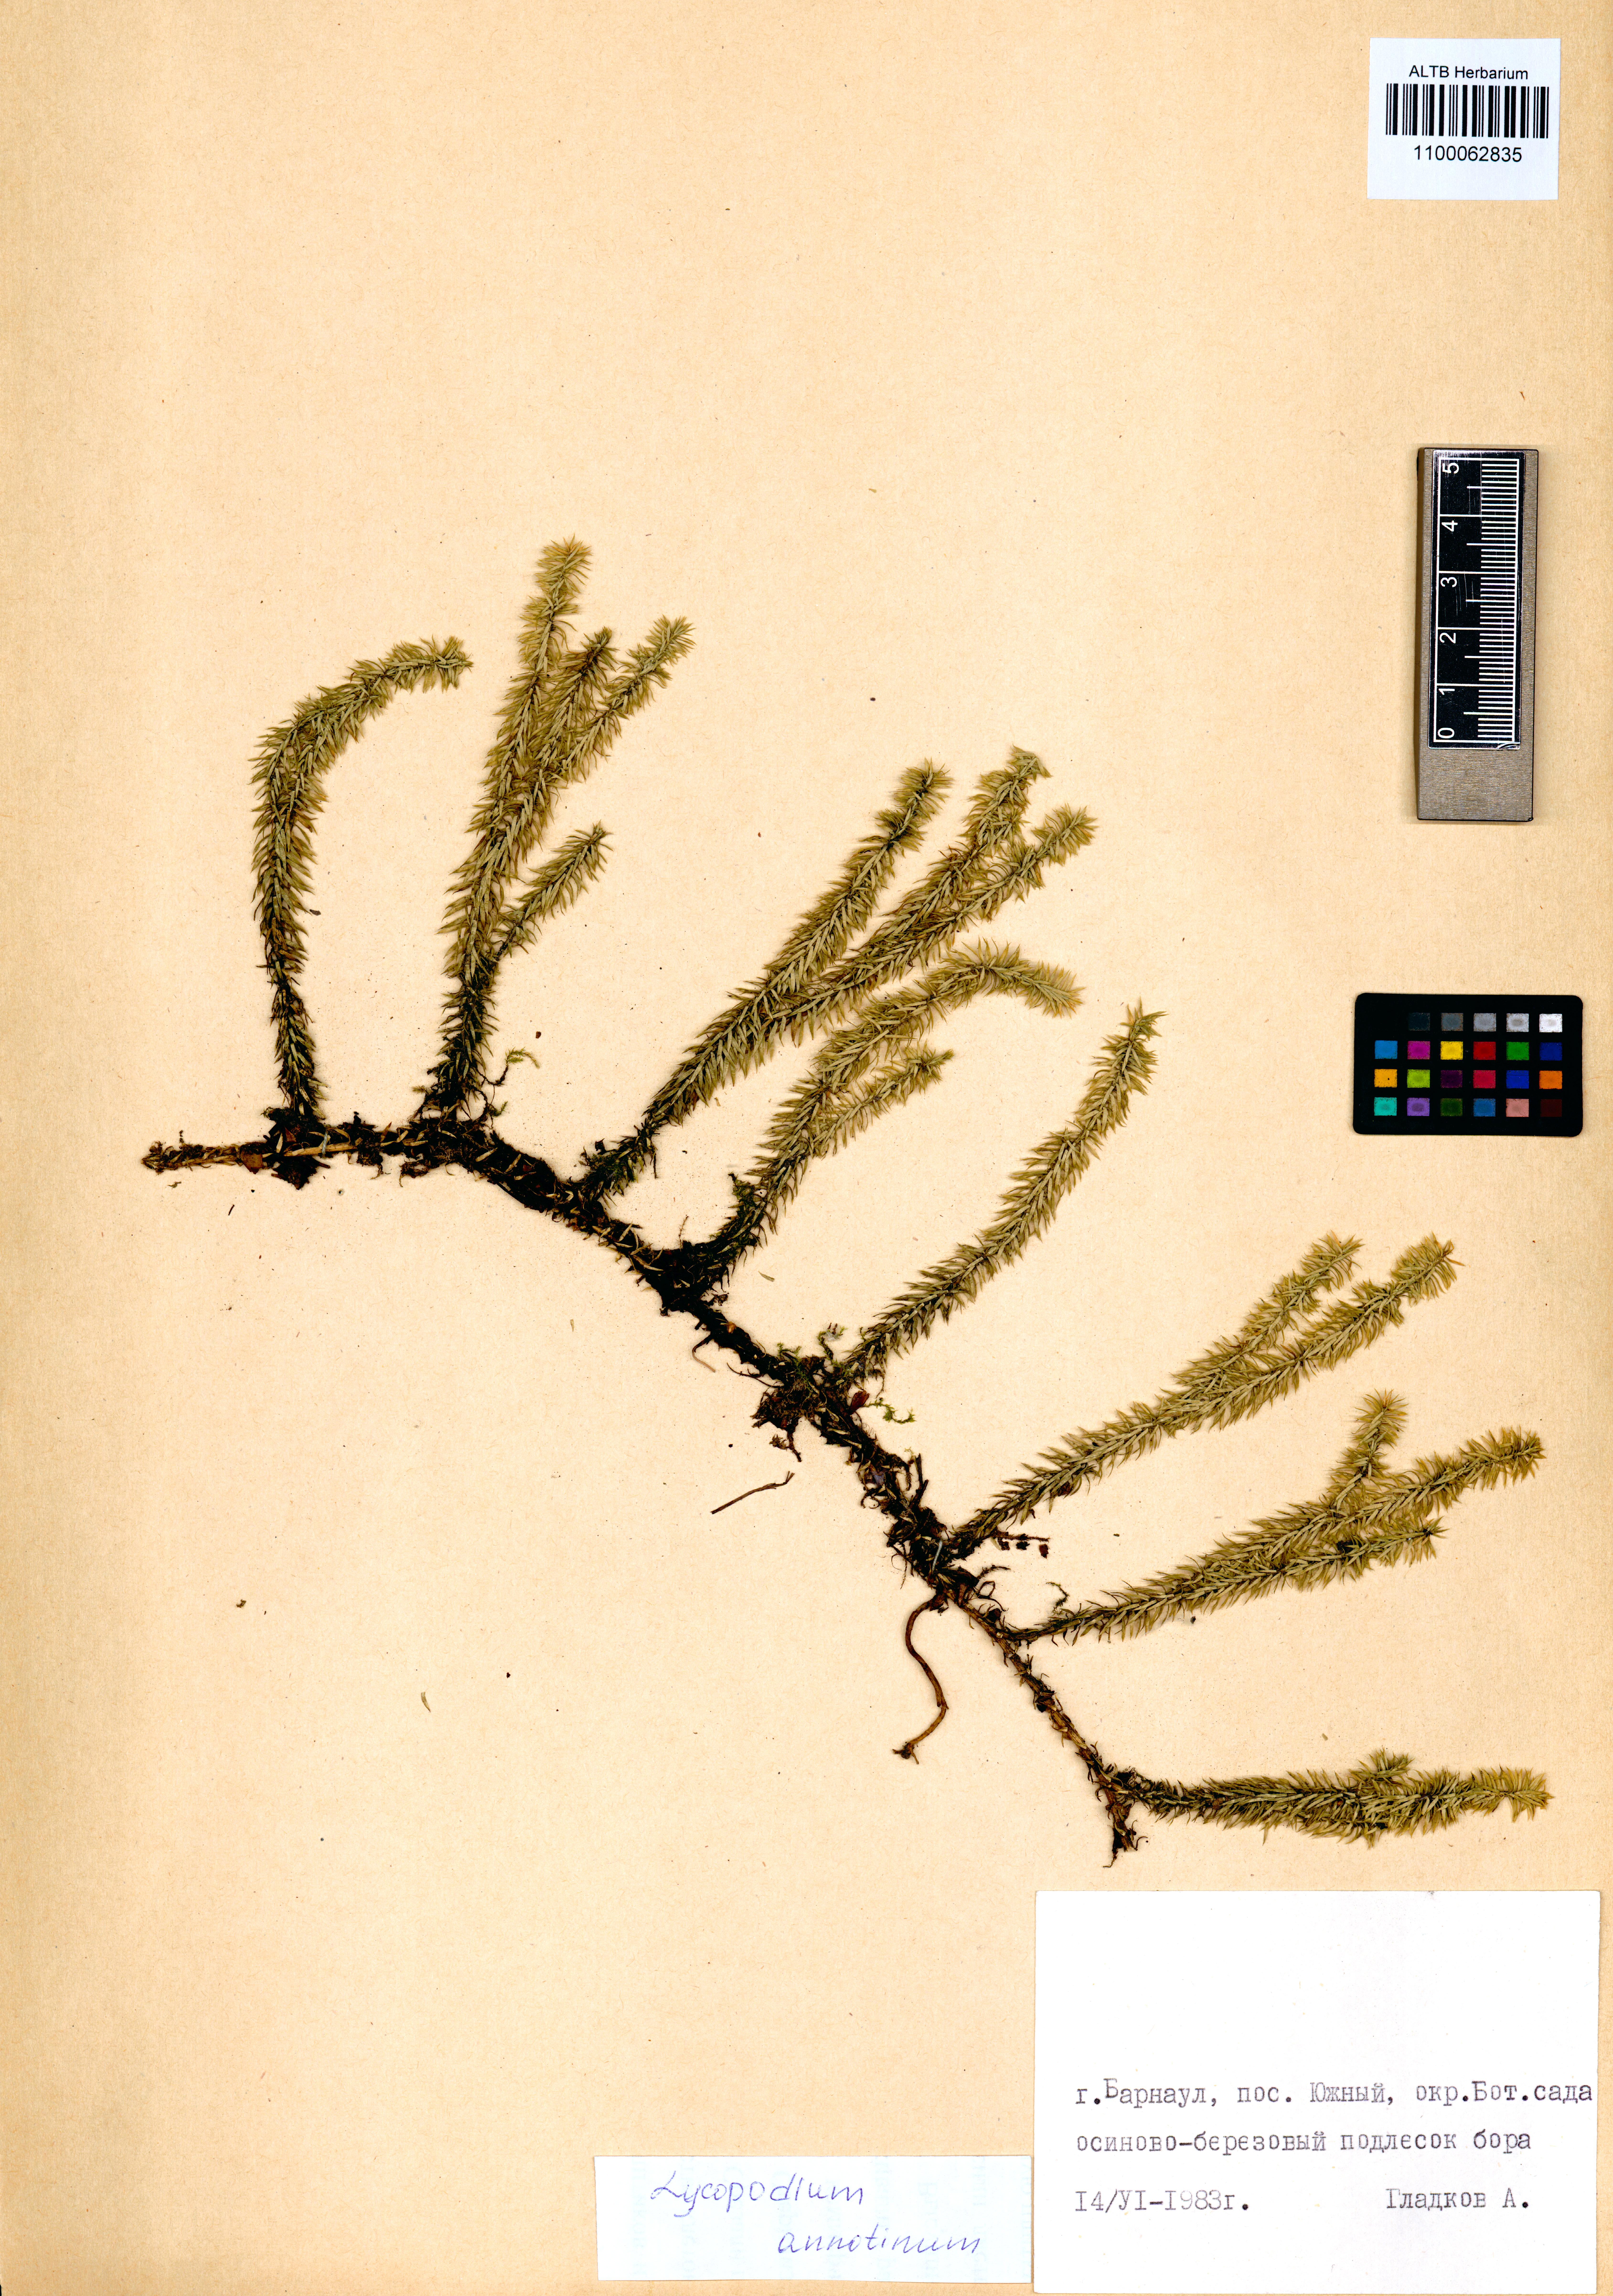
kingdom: Plantae
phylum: Tracheophyta
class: Lycopodiopsida
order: Lycopodiales
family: Lycopodiaceae
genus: Spinulum
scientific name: Spinulum annotinum
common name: Interrupted club-moss
